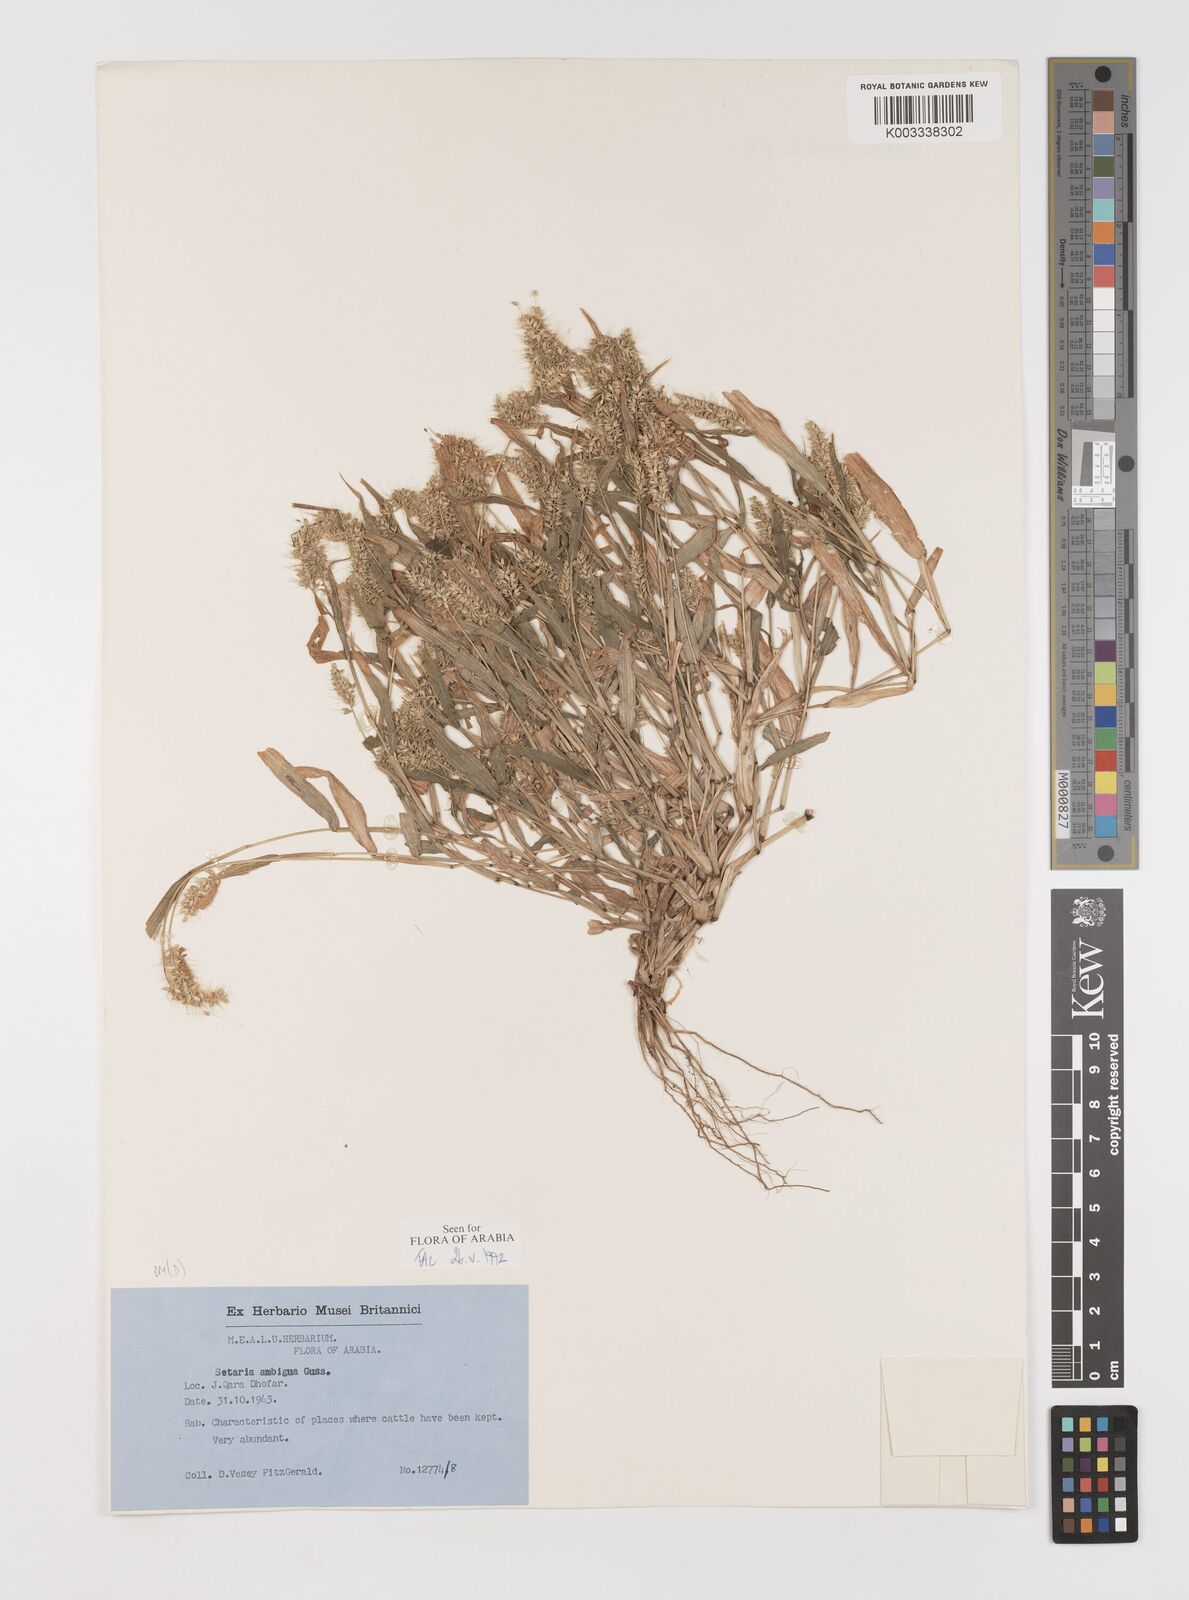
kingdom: Plantae
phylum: Tracheophyta
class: Liliopsida
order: Poales
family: Poaceae
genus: Setaria
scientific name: Setaria verticillata
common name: Hooked bristlegrass
